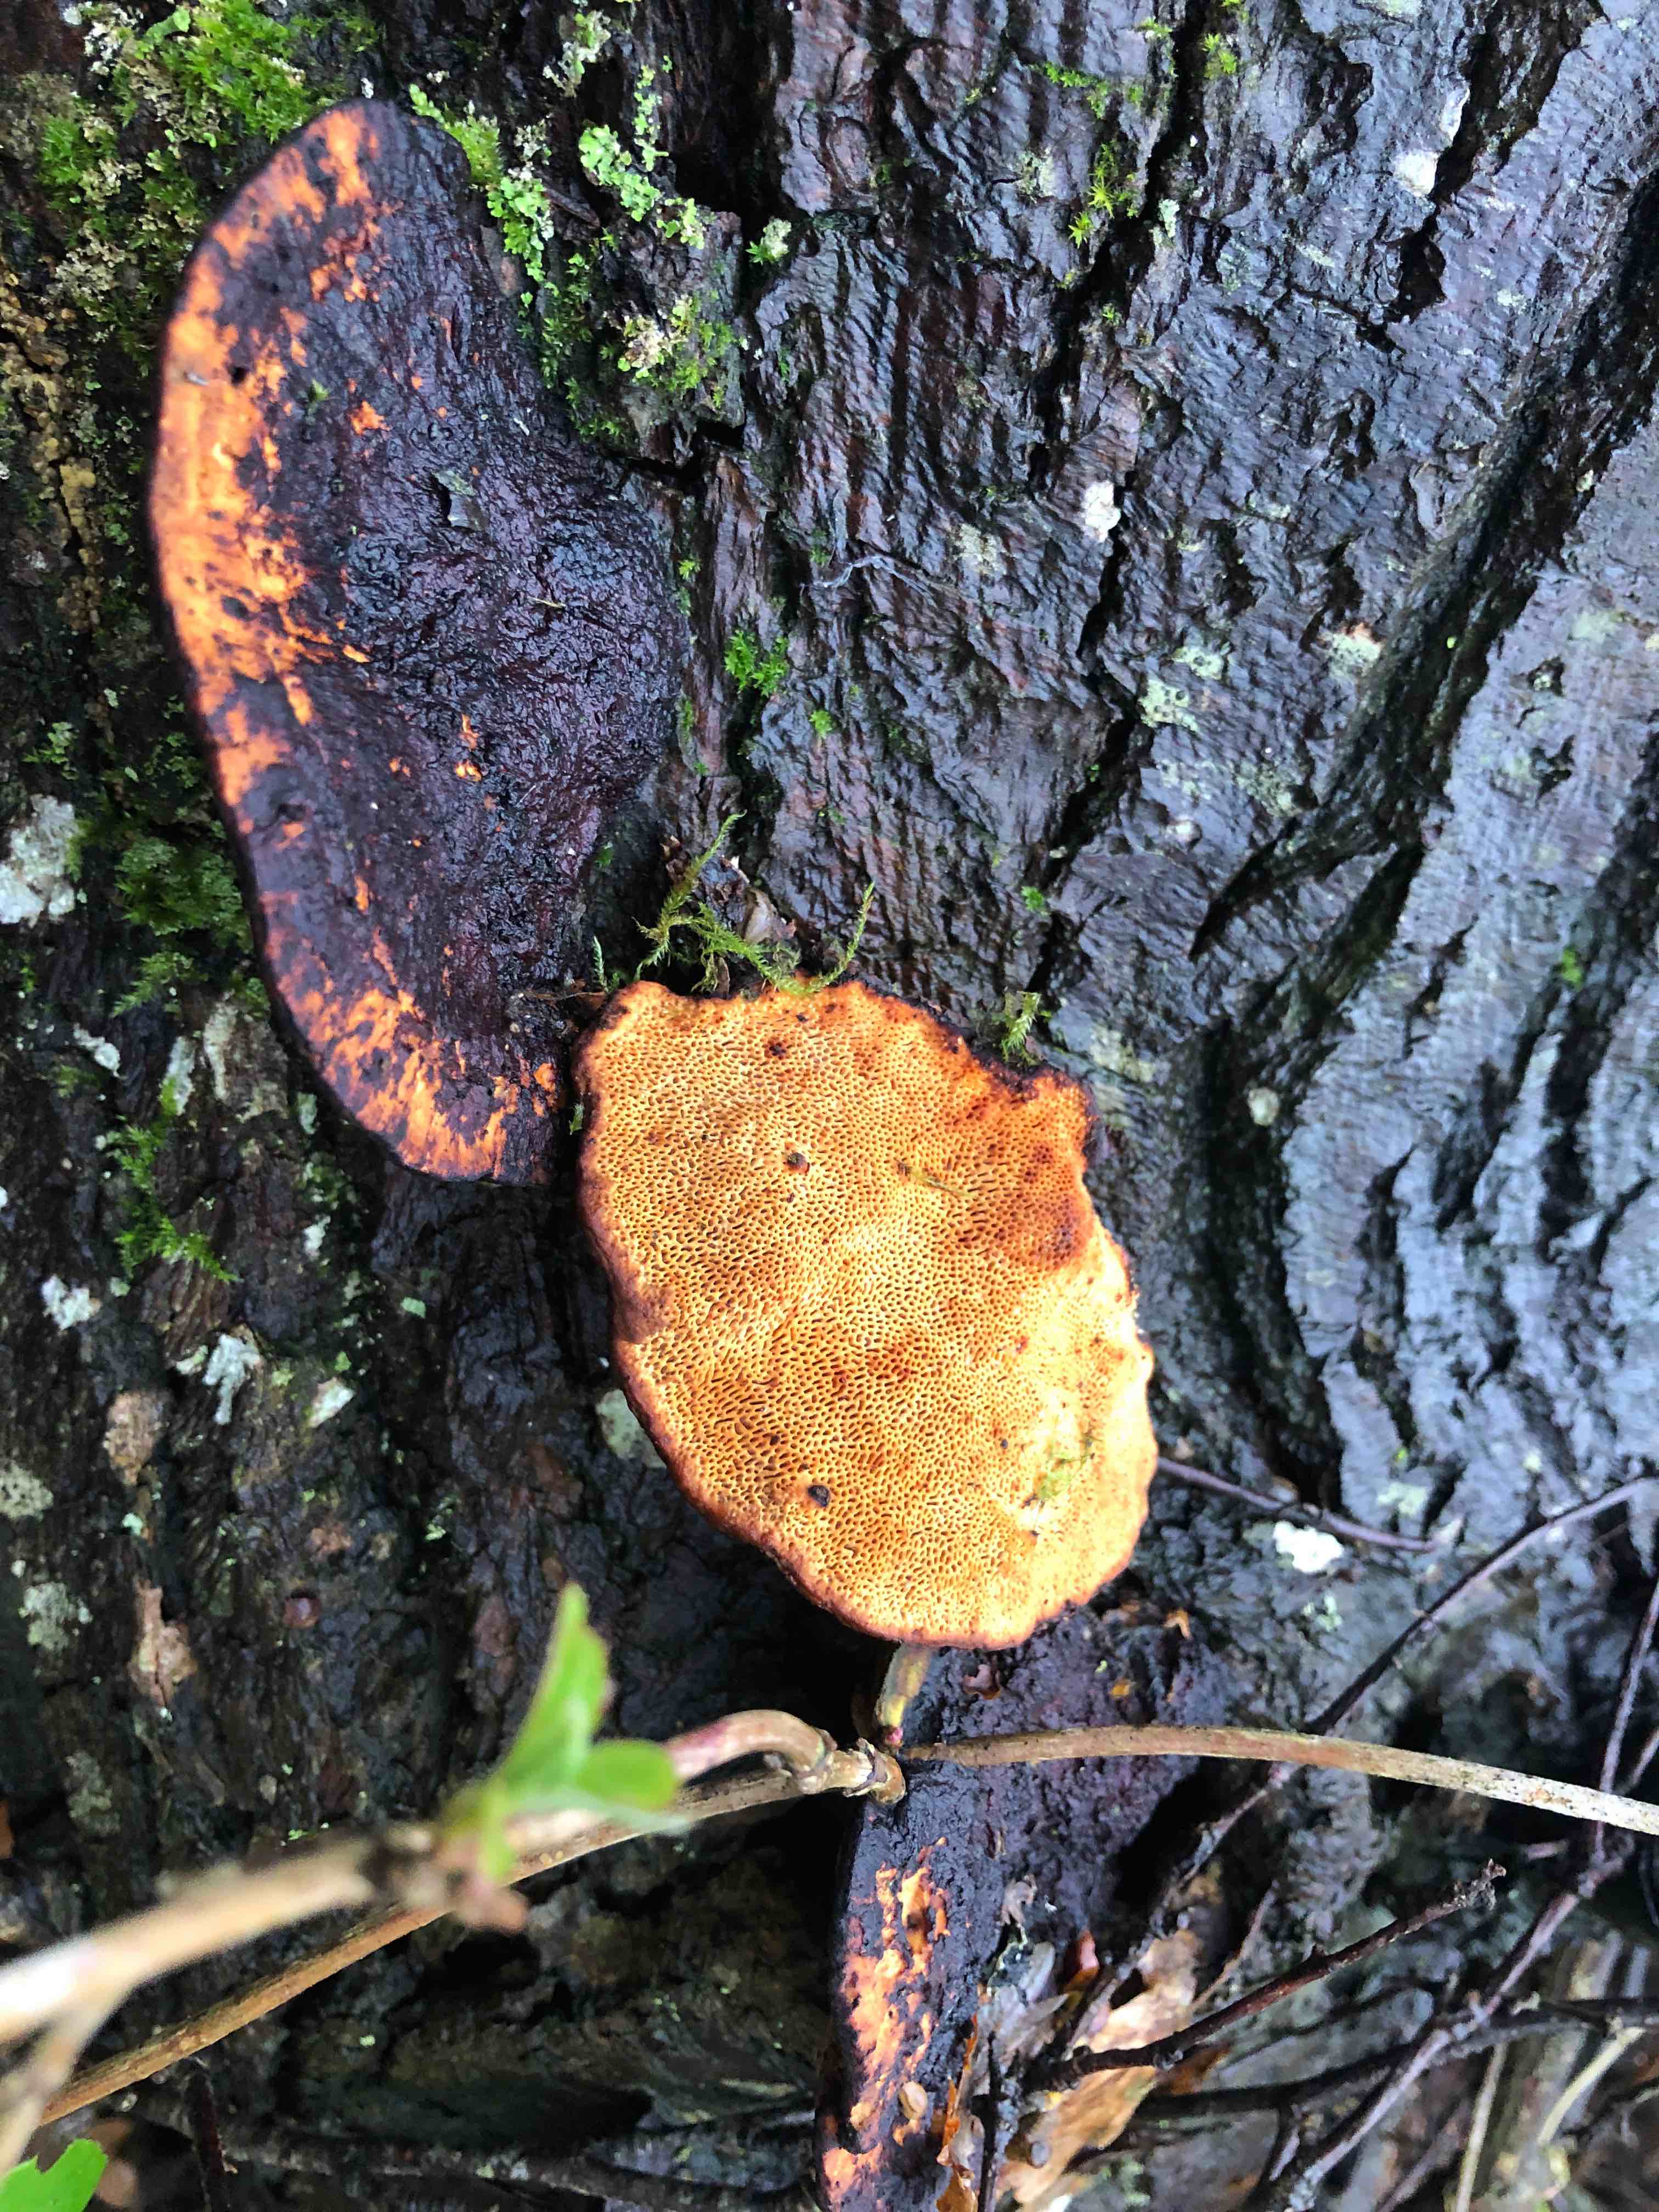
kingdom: Fungi
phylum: Basidiomycota
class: Agaricomycetes
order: Polyporales
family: Polyporaceae
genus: Daedaleopsis
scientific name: Daedaleopsis confragosa
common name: rødmende læderporesvamp
